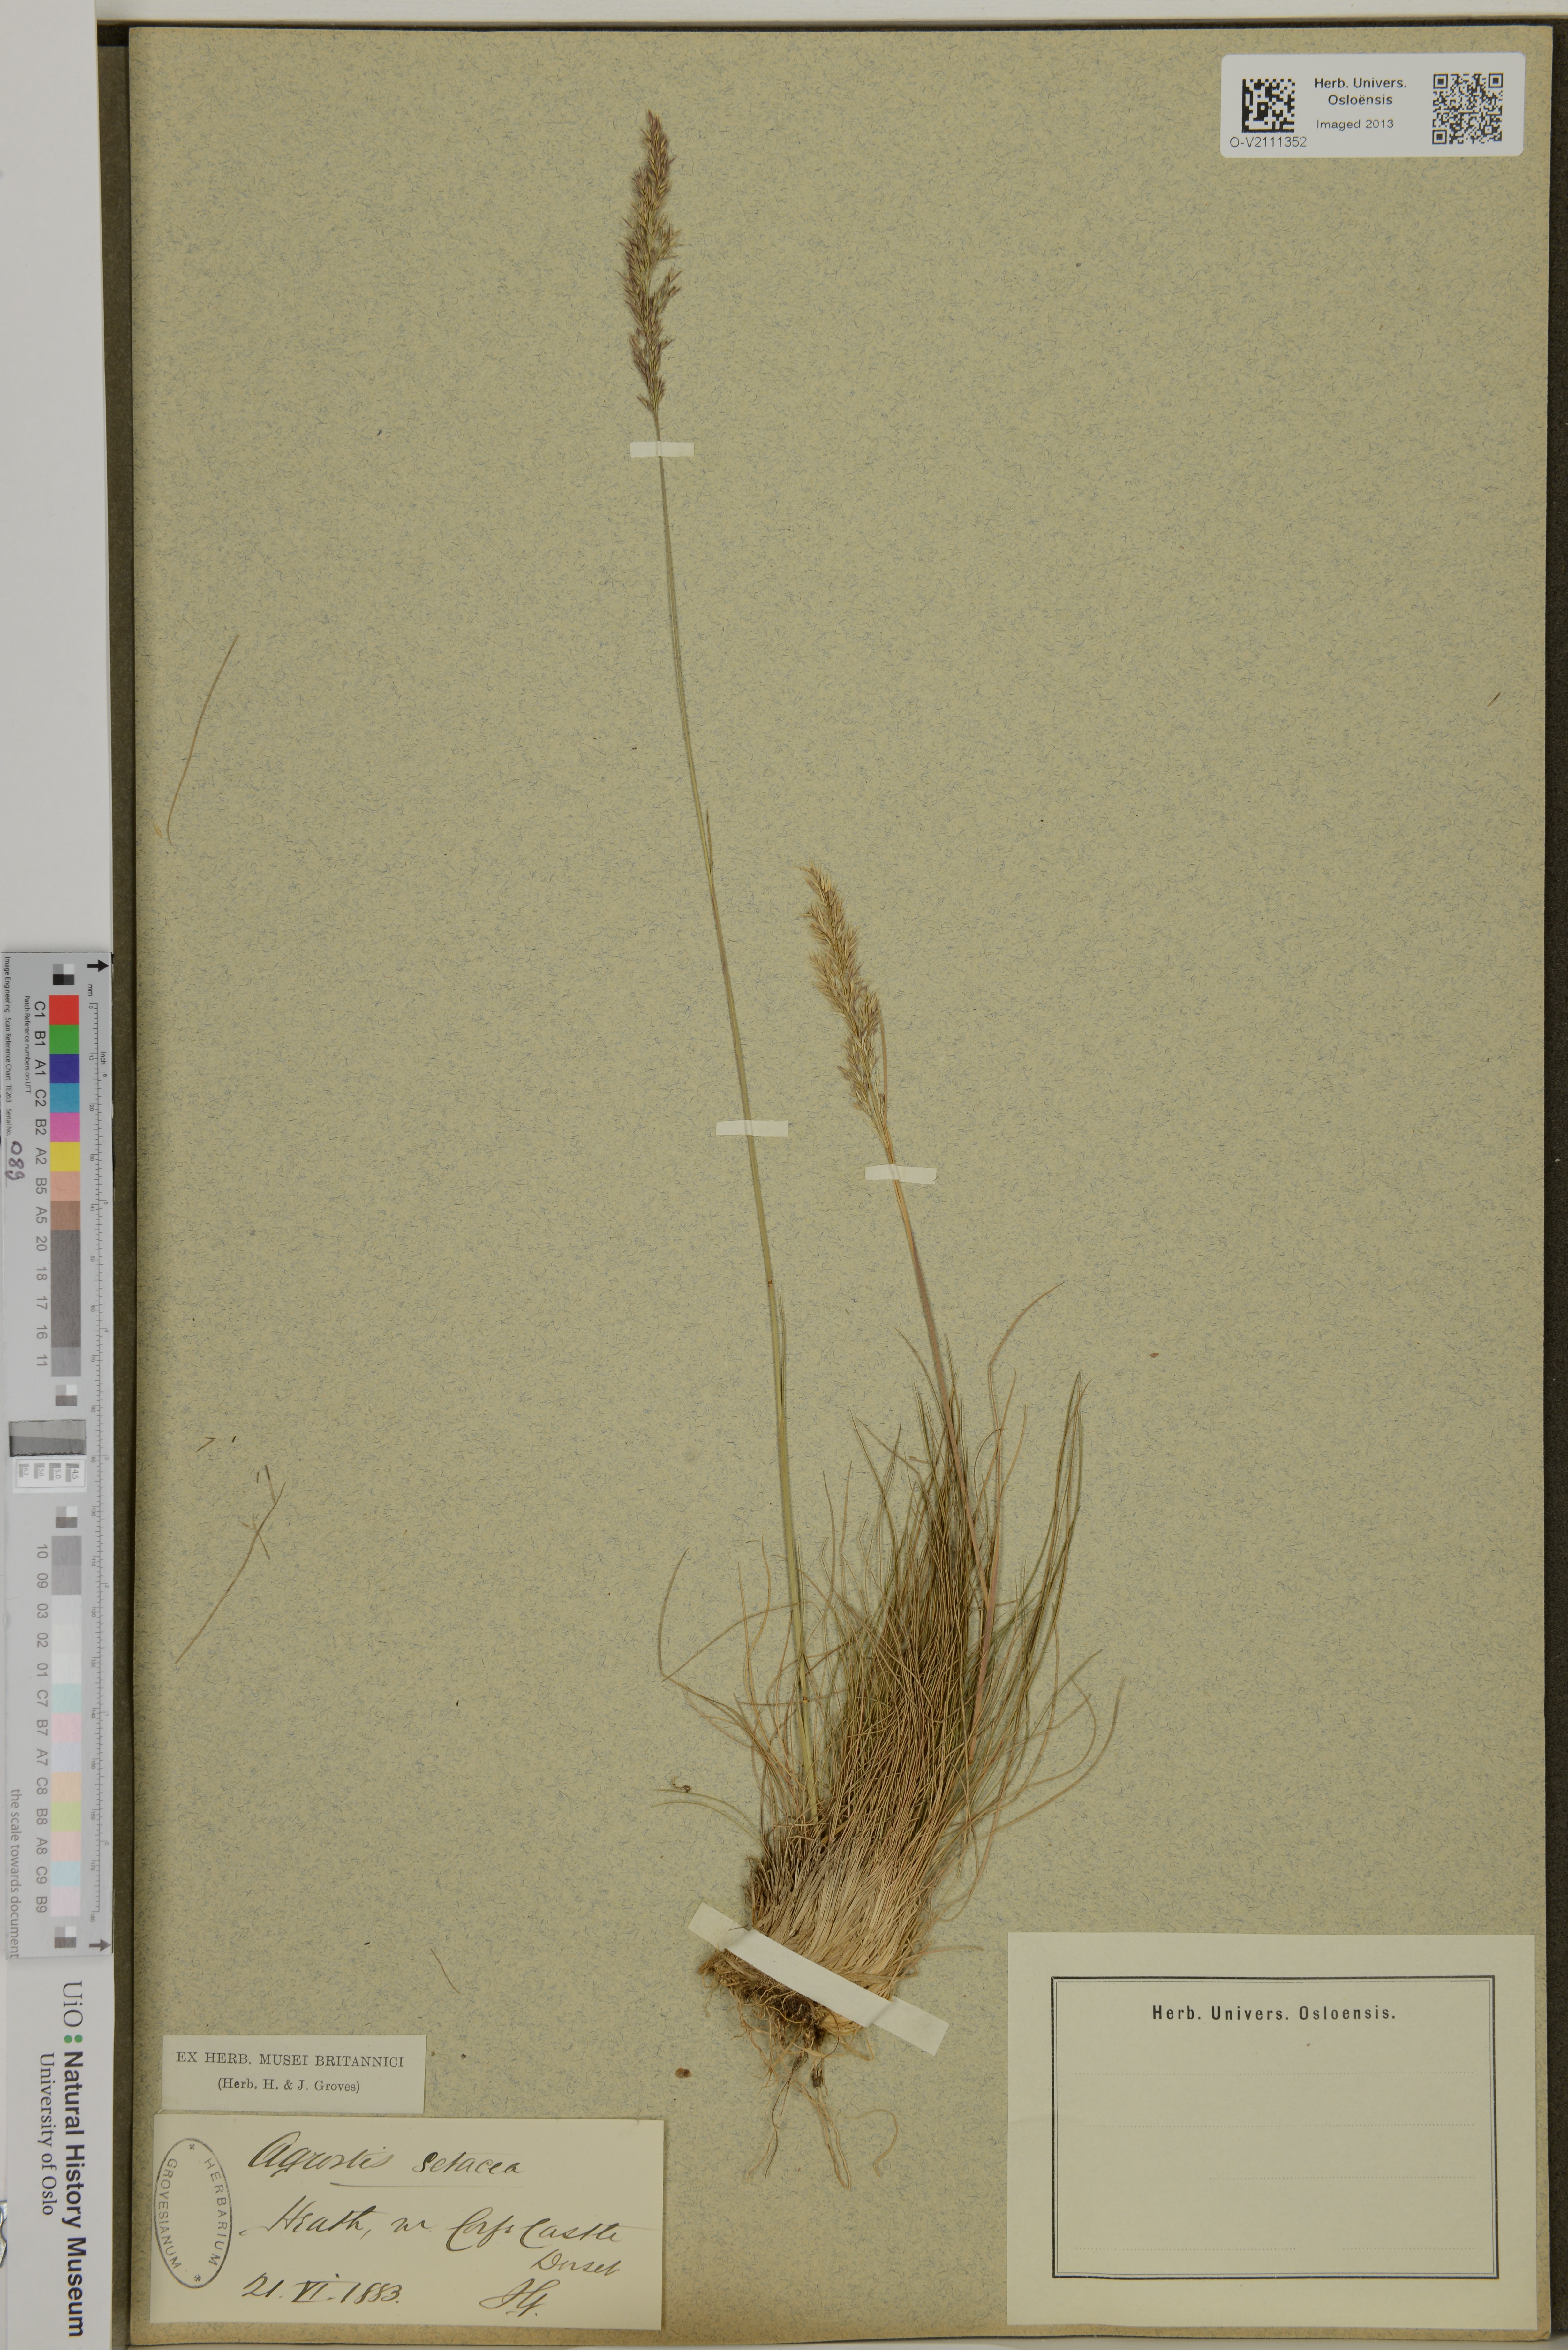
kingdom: Plantae
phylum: Tracheophyta
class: Liliopsida
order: Poales
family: Poaceae
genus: Agrostis
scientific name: Agrostis rupestris
